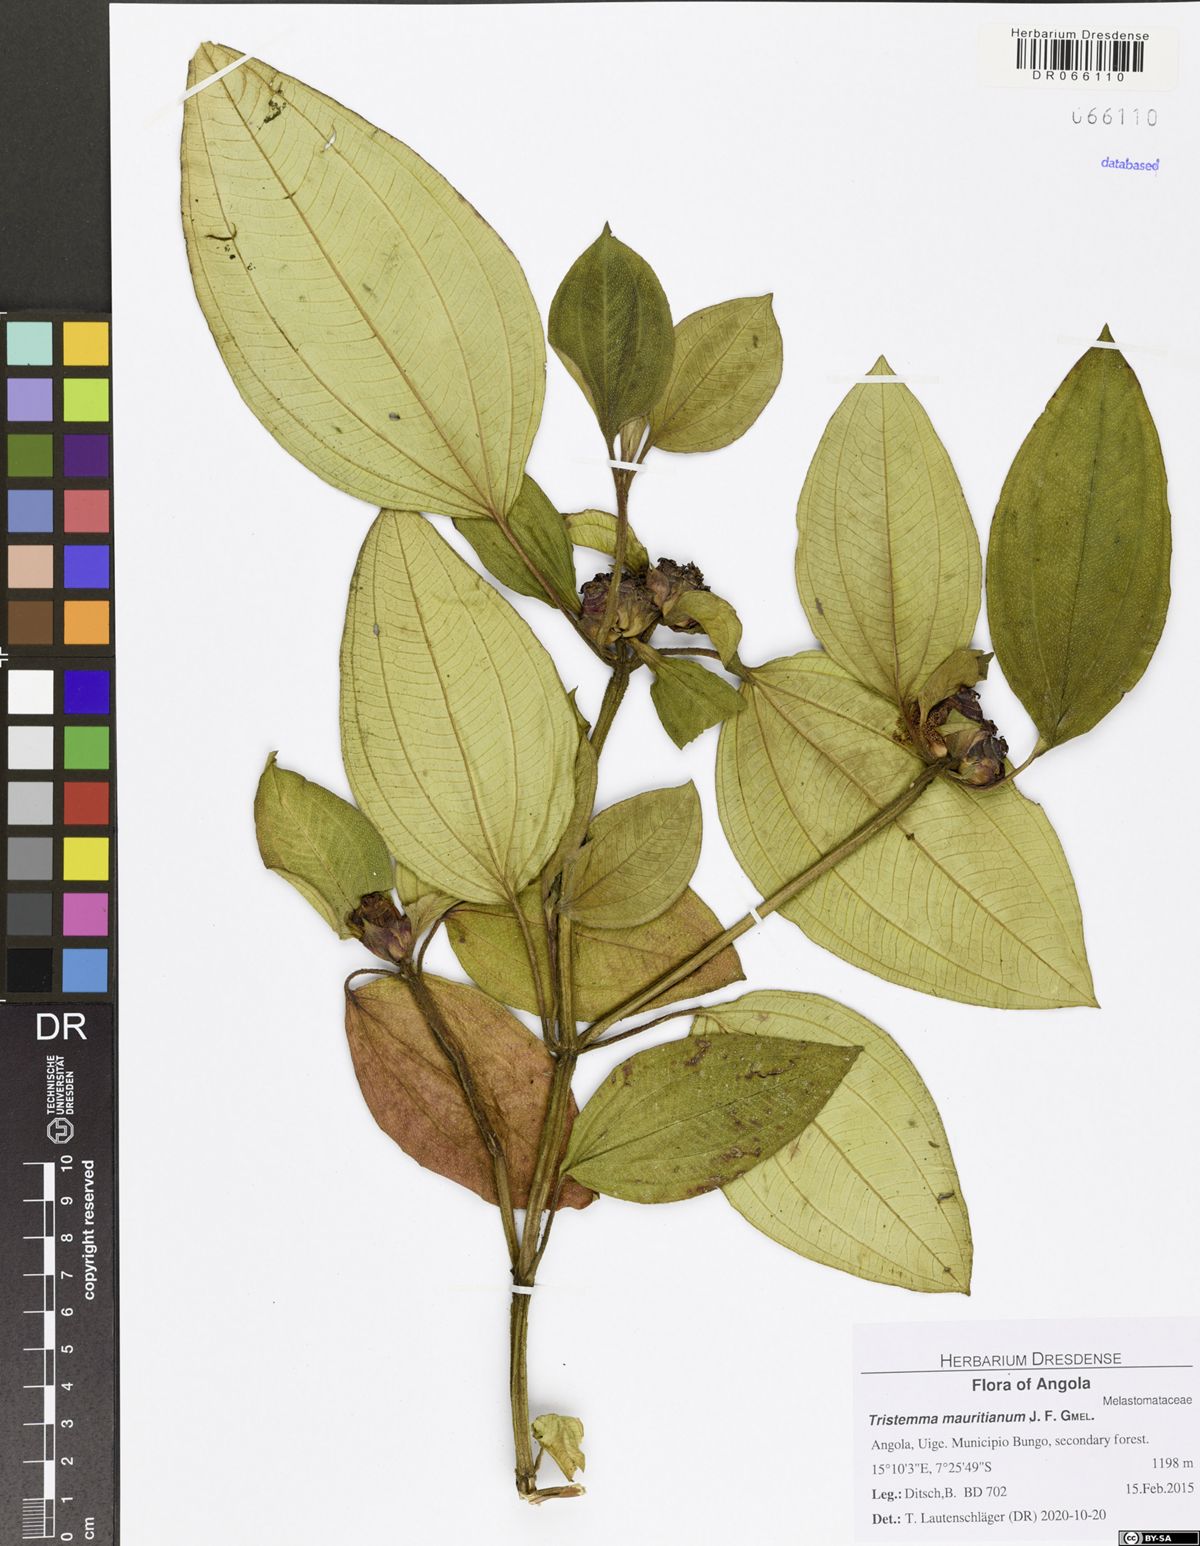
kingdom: Plantae
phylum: Tracheophyta
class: Magnoliopsida
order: Myrtales
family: Melastomataceae
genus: Tristemma
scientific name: Tristemma mauritianum
